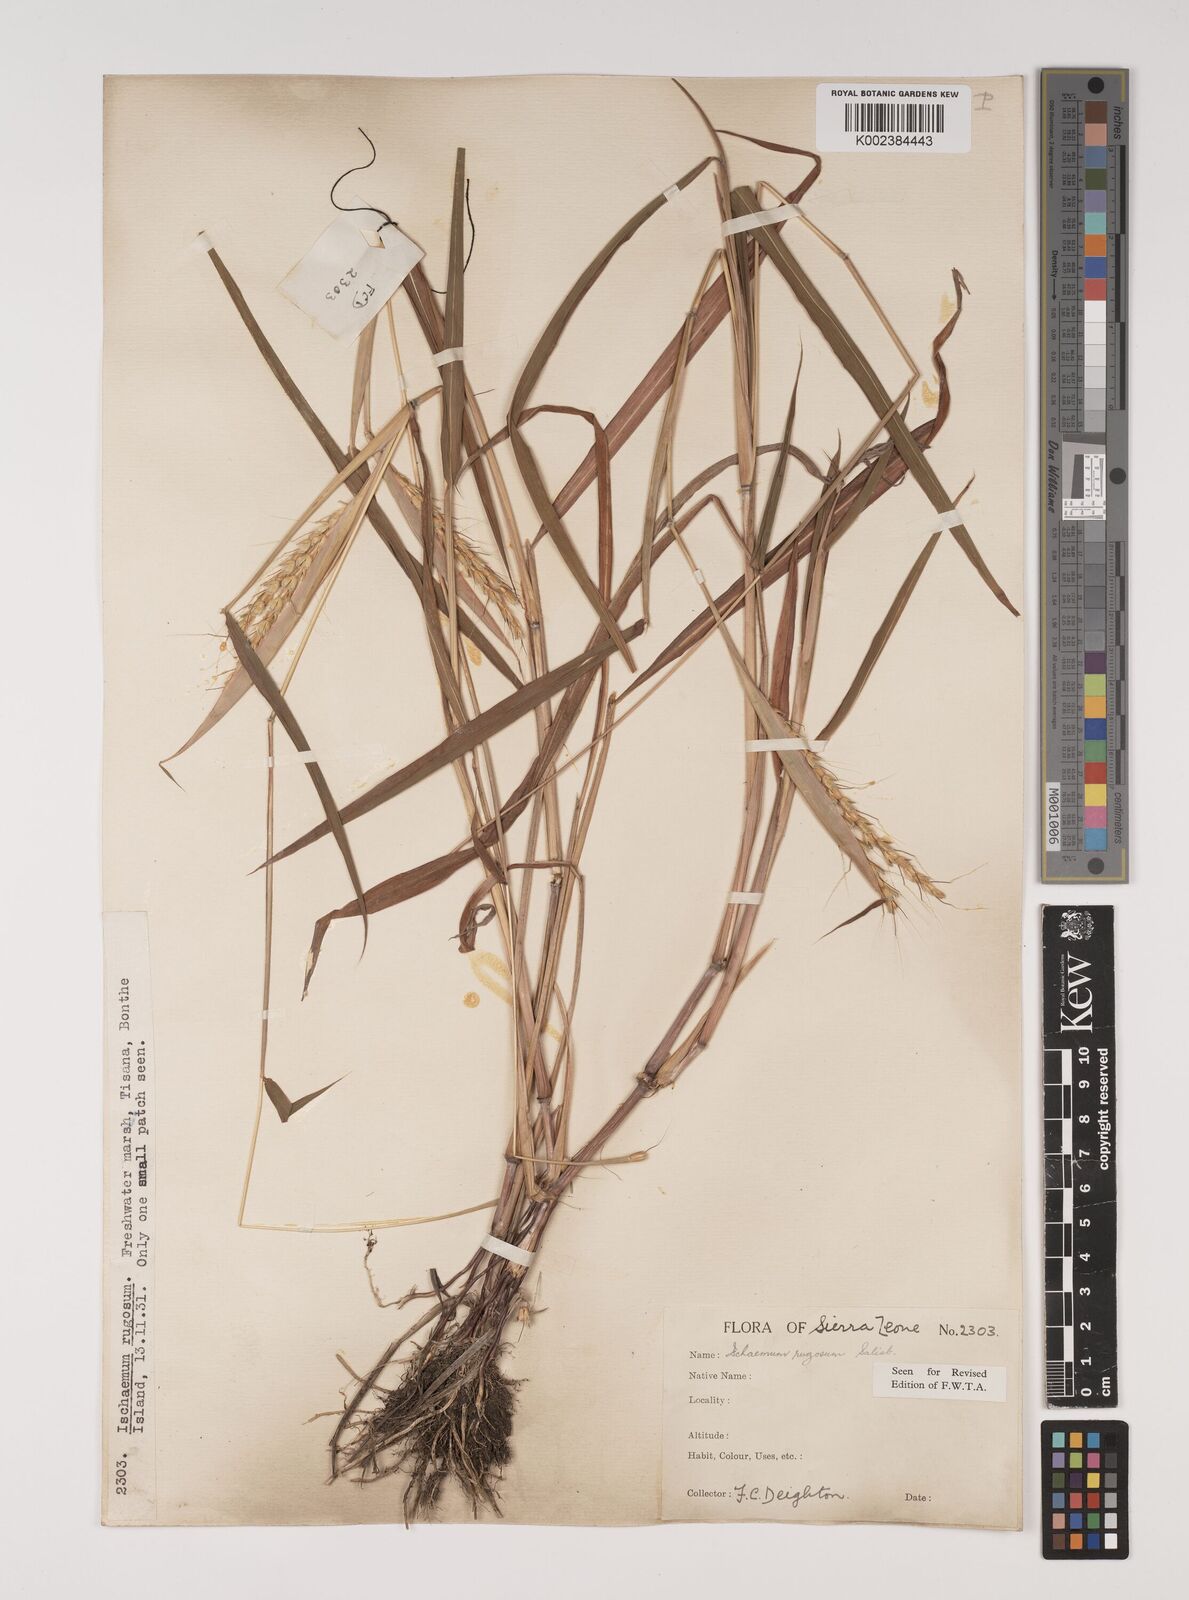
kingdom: Plantae
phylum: Tracheophyta
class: Liliopsida
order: Poales
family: Poaceae
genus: Ischaemum
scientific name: Ischaemum rugosum
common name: Saramatta grass
